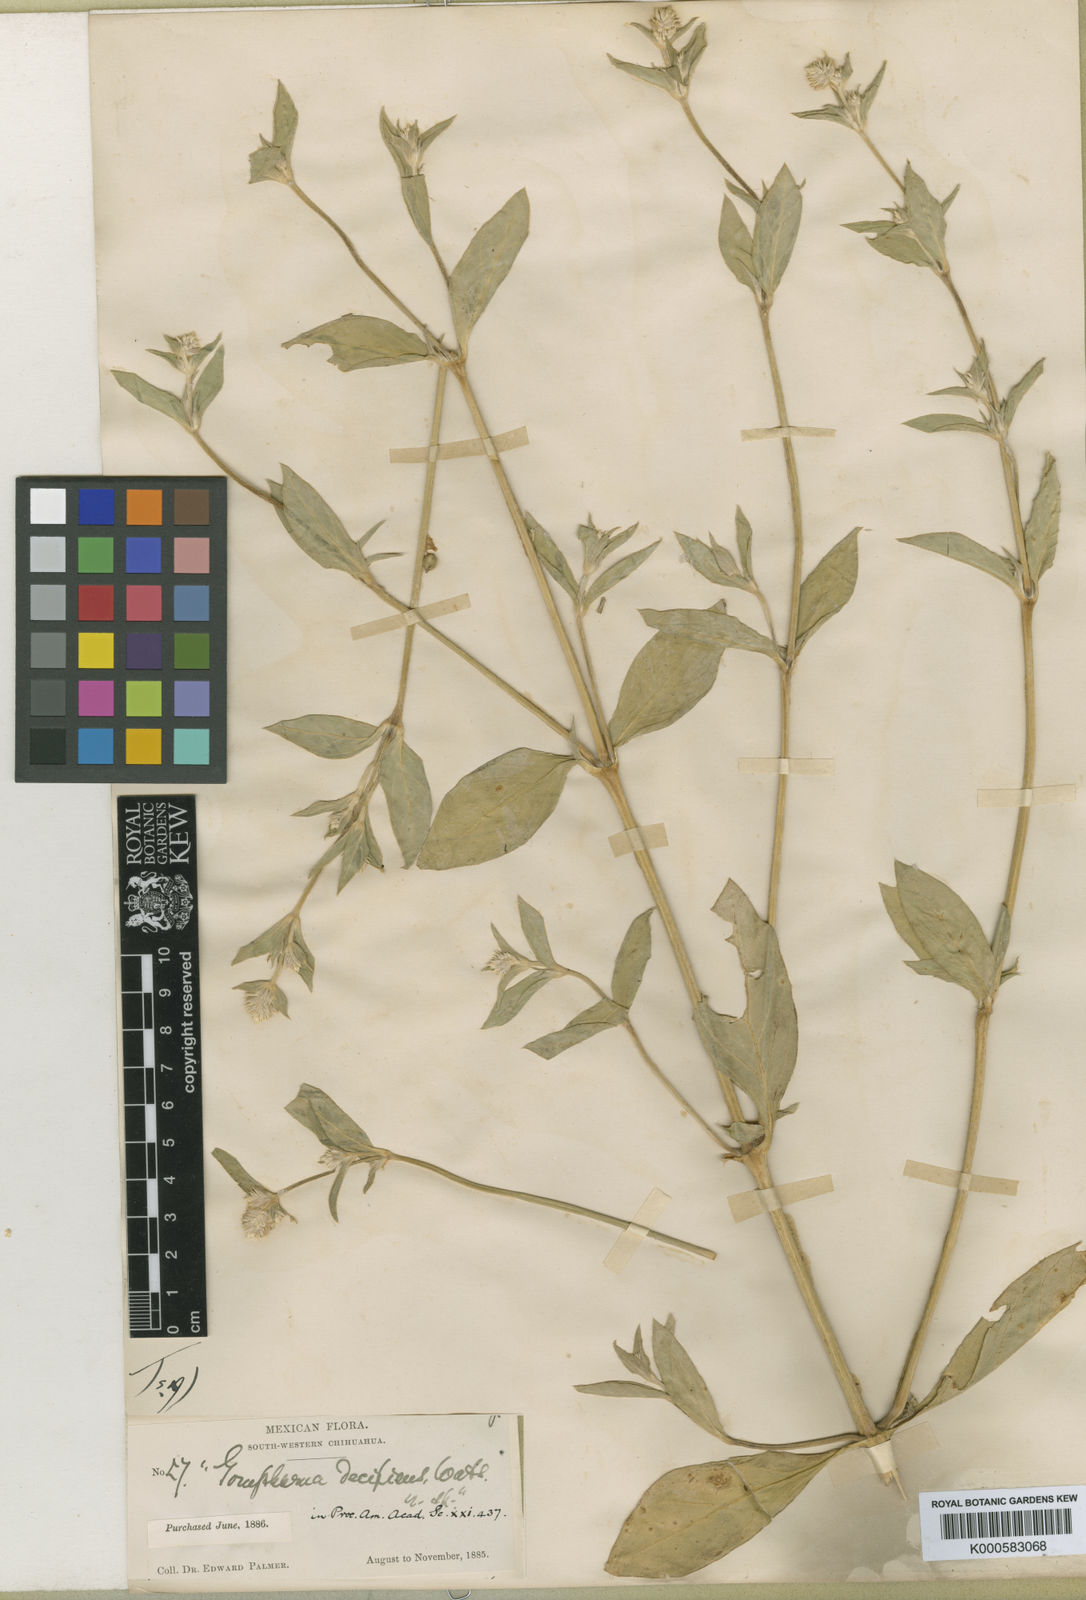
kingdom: Plantae
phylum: Tracheophyta
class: Magnoliopsida
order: Caryophyllales
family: Amaranthaceae
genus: Gomphrena
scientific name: Gomphrena sonorae
